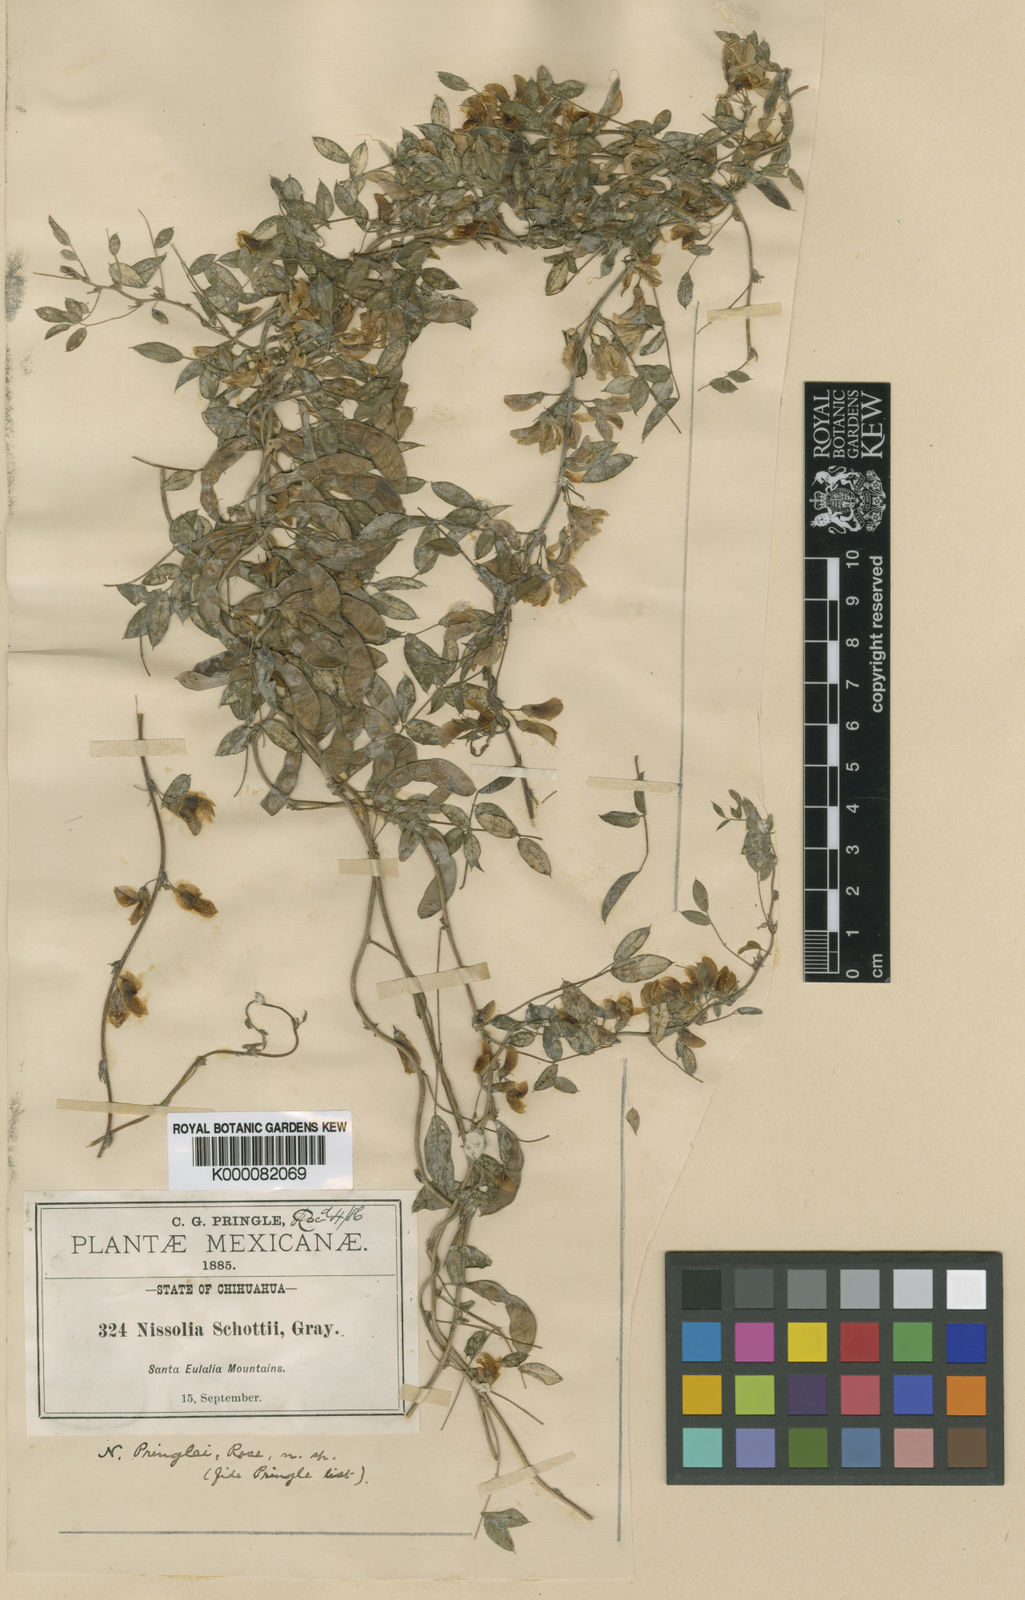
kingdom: Plantae
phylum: Tracheophyta
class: Magnoliopsida
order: Fabales
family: Fabaceae
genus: Nissolia
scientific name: Nissolia pringlei
